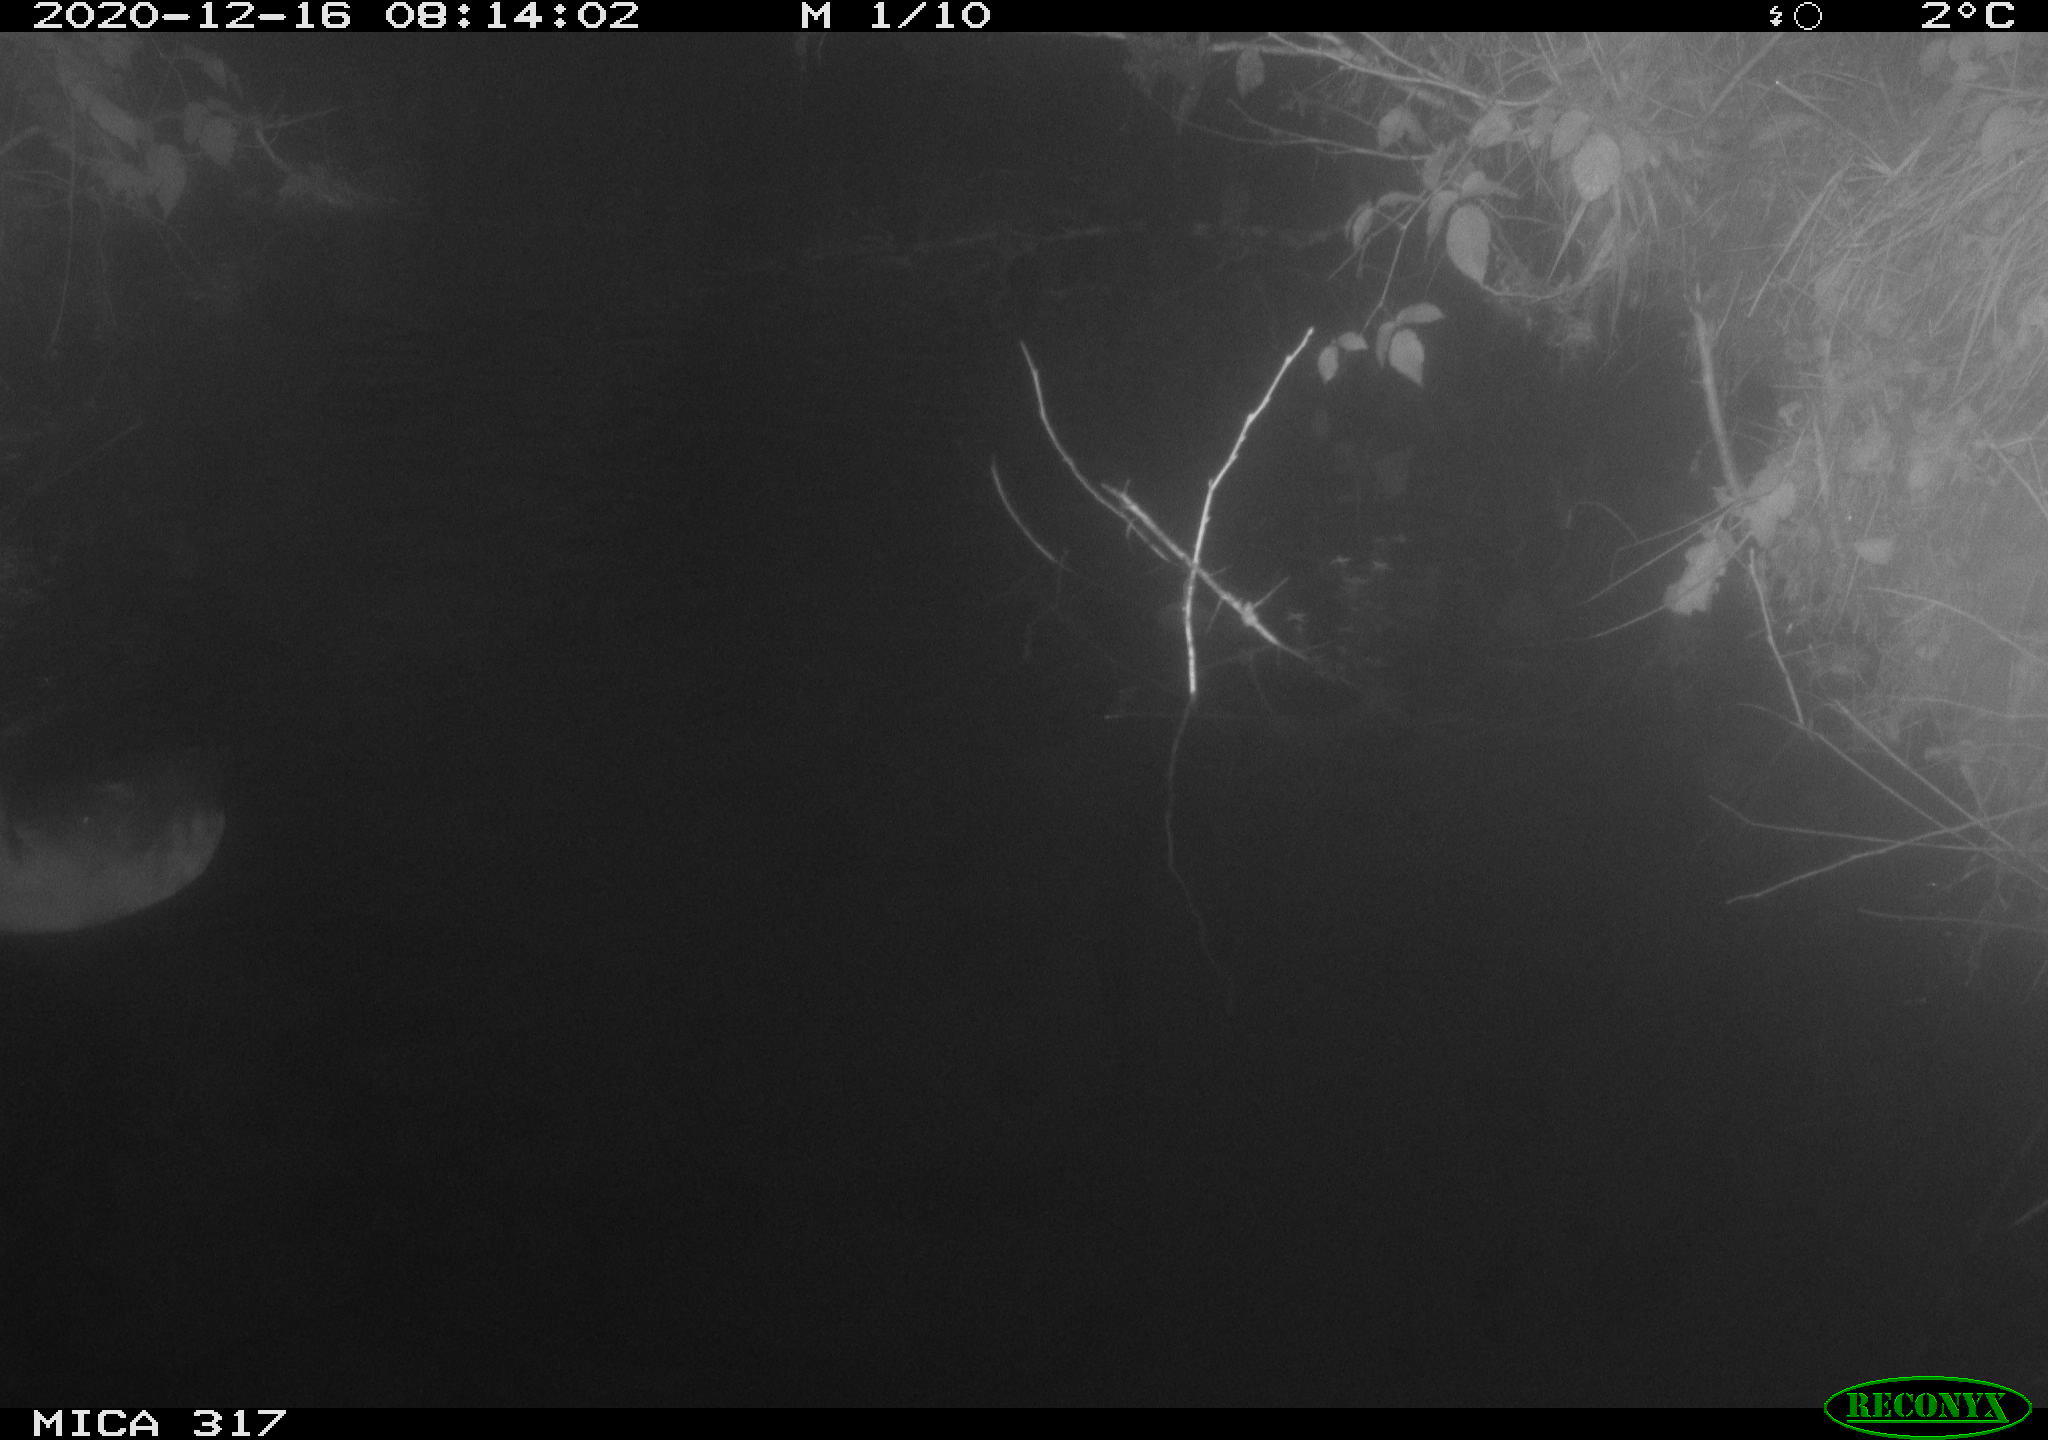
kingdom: Animalia
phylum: Chordata
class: Aves
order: Gruiformes
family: Rallidae
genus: Fulica
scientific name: Fulica atra
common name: Eurasian coot
